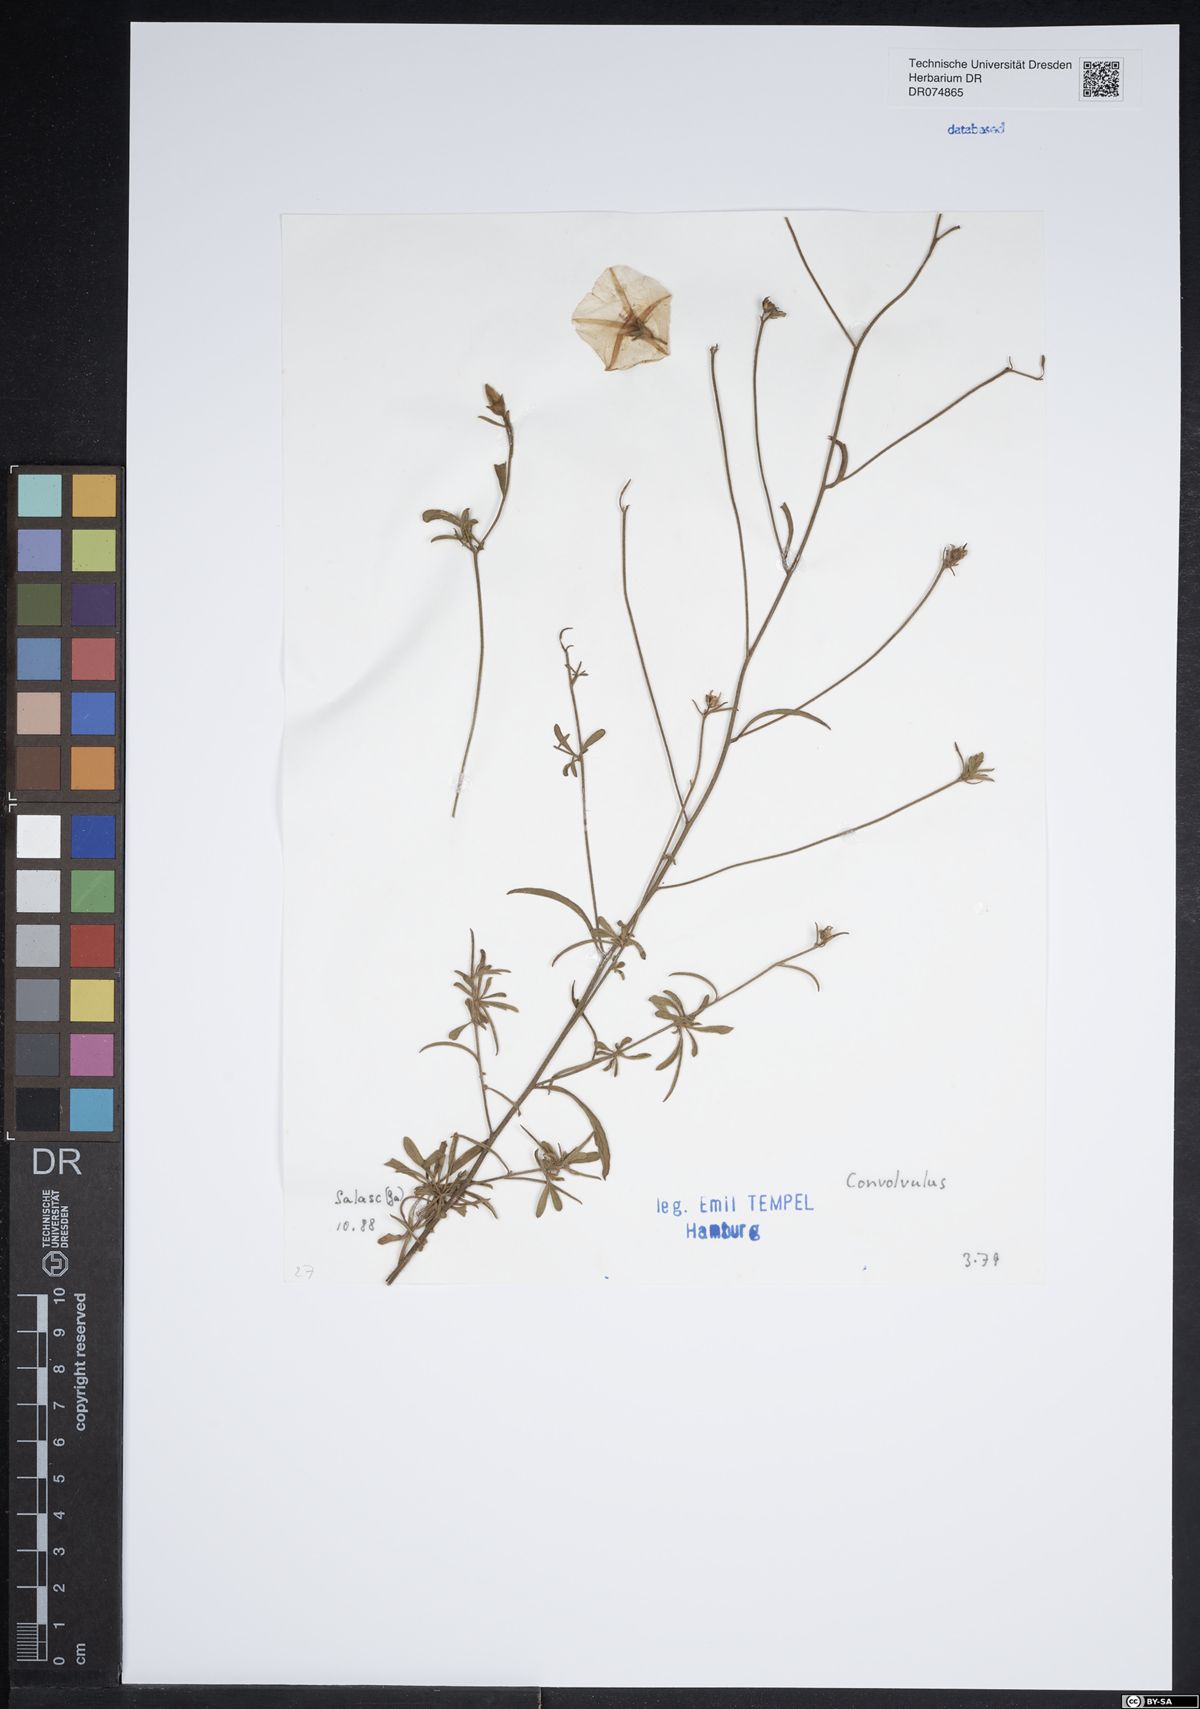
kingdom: Plantae
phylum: Tracheophyta
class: Magnoliopsida
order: Solanales
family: Convolvulaceae
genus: Convolvulus
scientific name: Convolvulus
